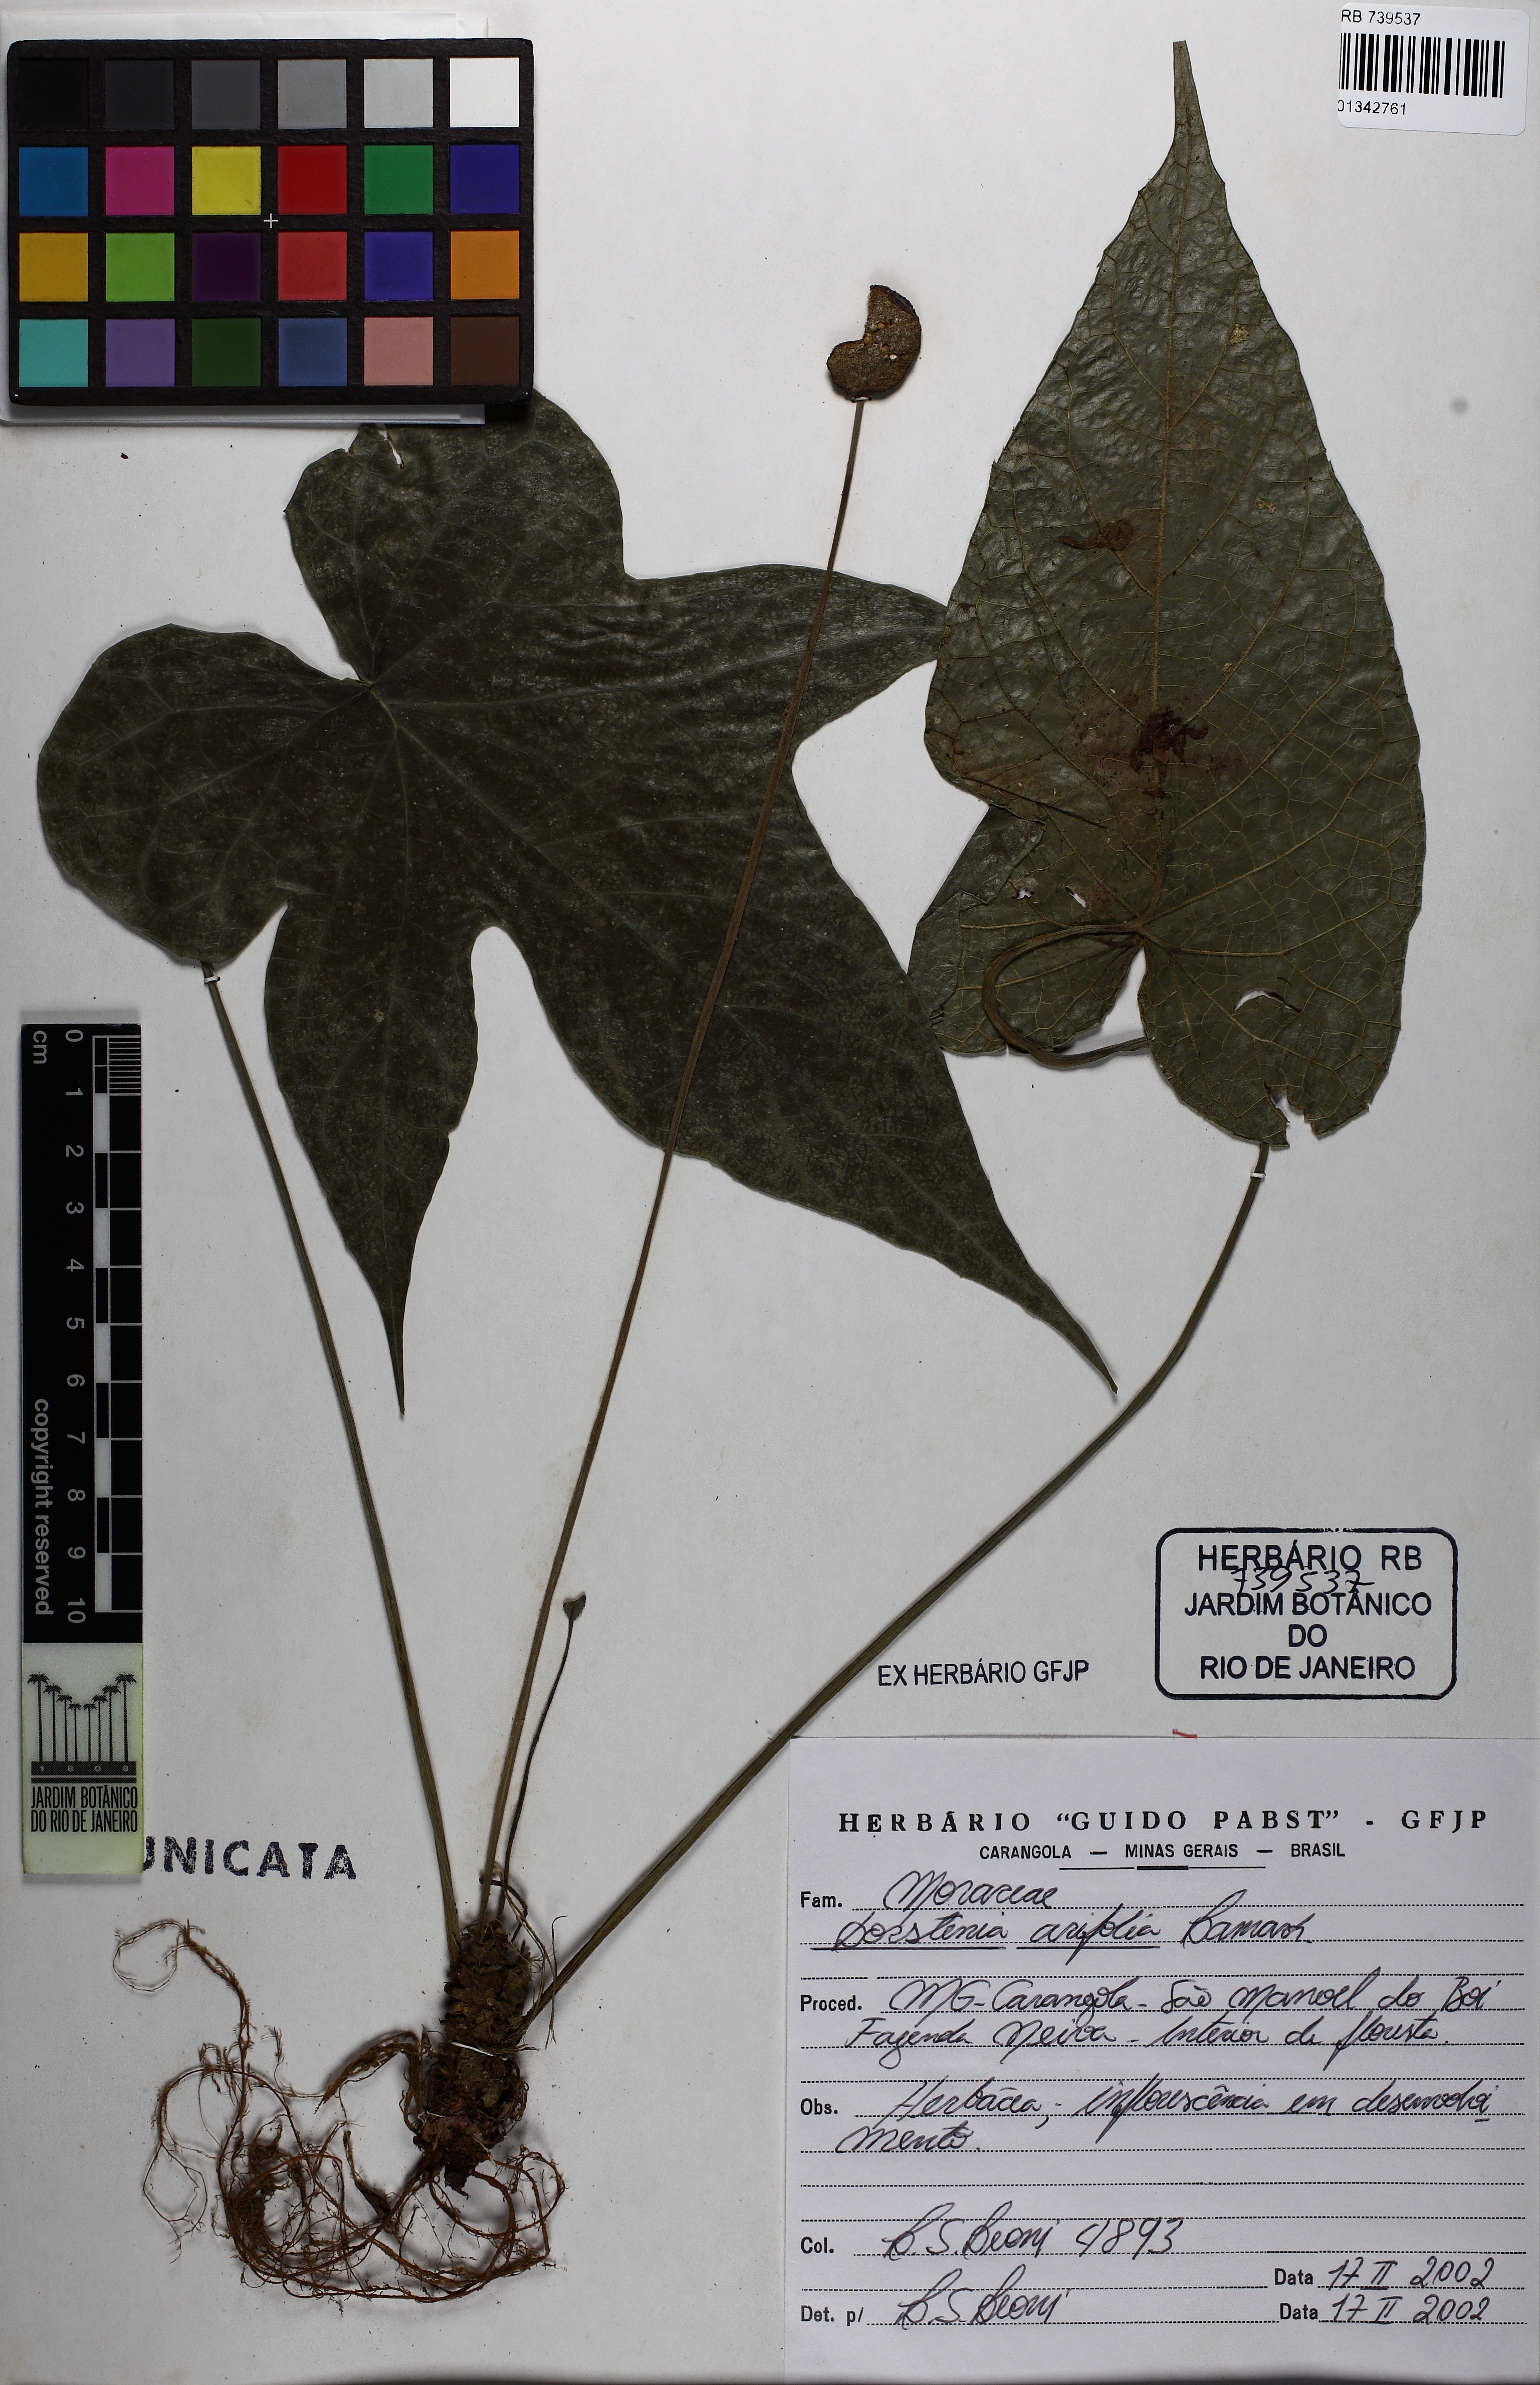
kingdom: Plantae
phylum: Tracheophyta
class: Magnoliopsida
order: Rosales
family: Moraceae
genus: Dorstenia
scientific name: Dorstenia arifolia
